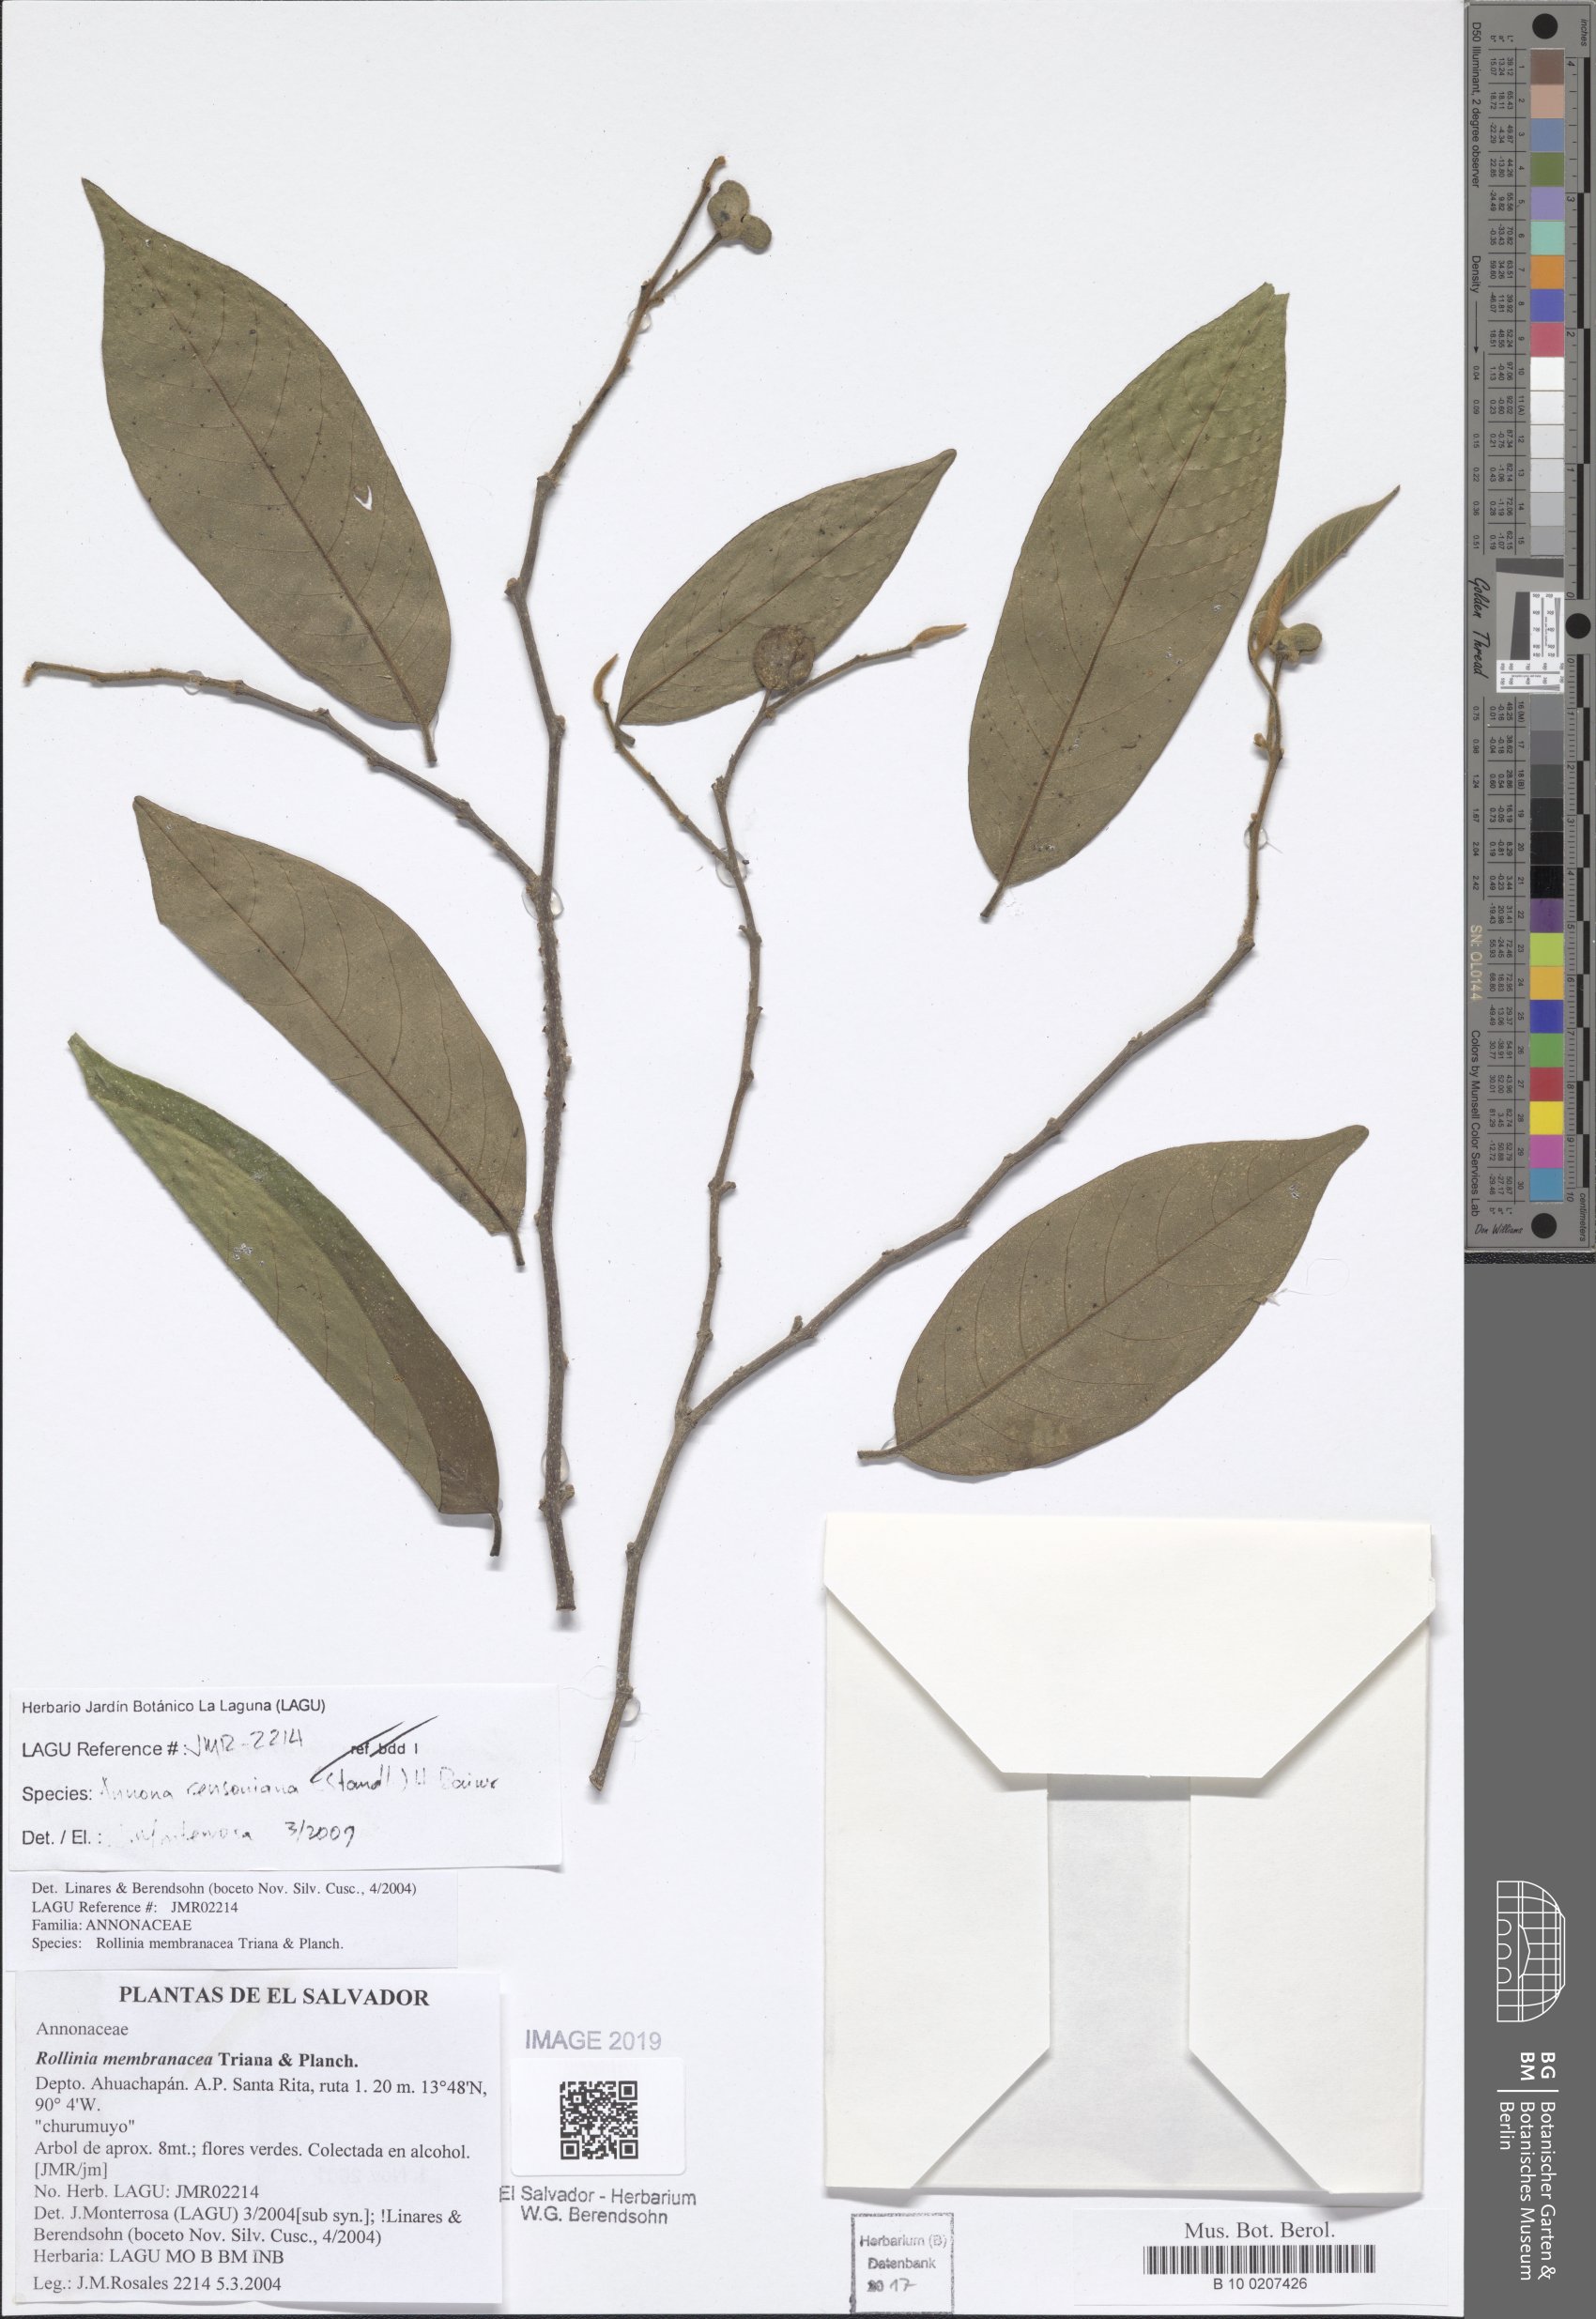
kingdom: Plantae
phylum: Tracheophyta
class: Magnoliopsida
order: Magnoliales
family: Annonaceae
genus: Annona
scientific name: Annona rensoniana
